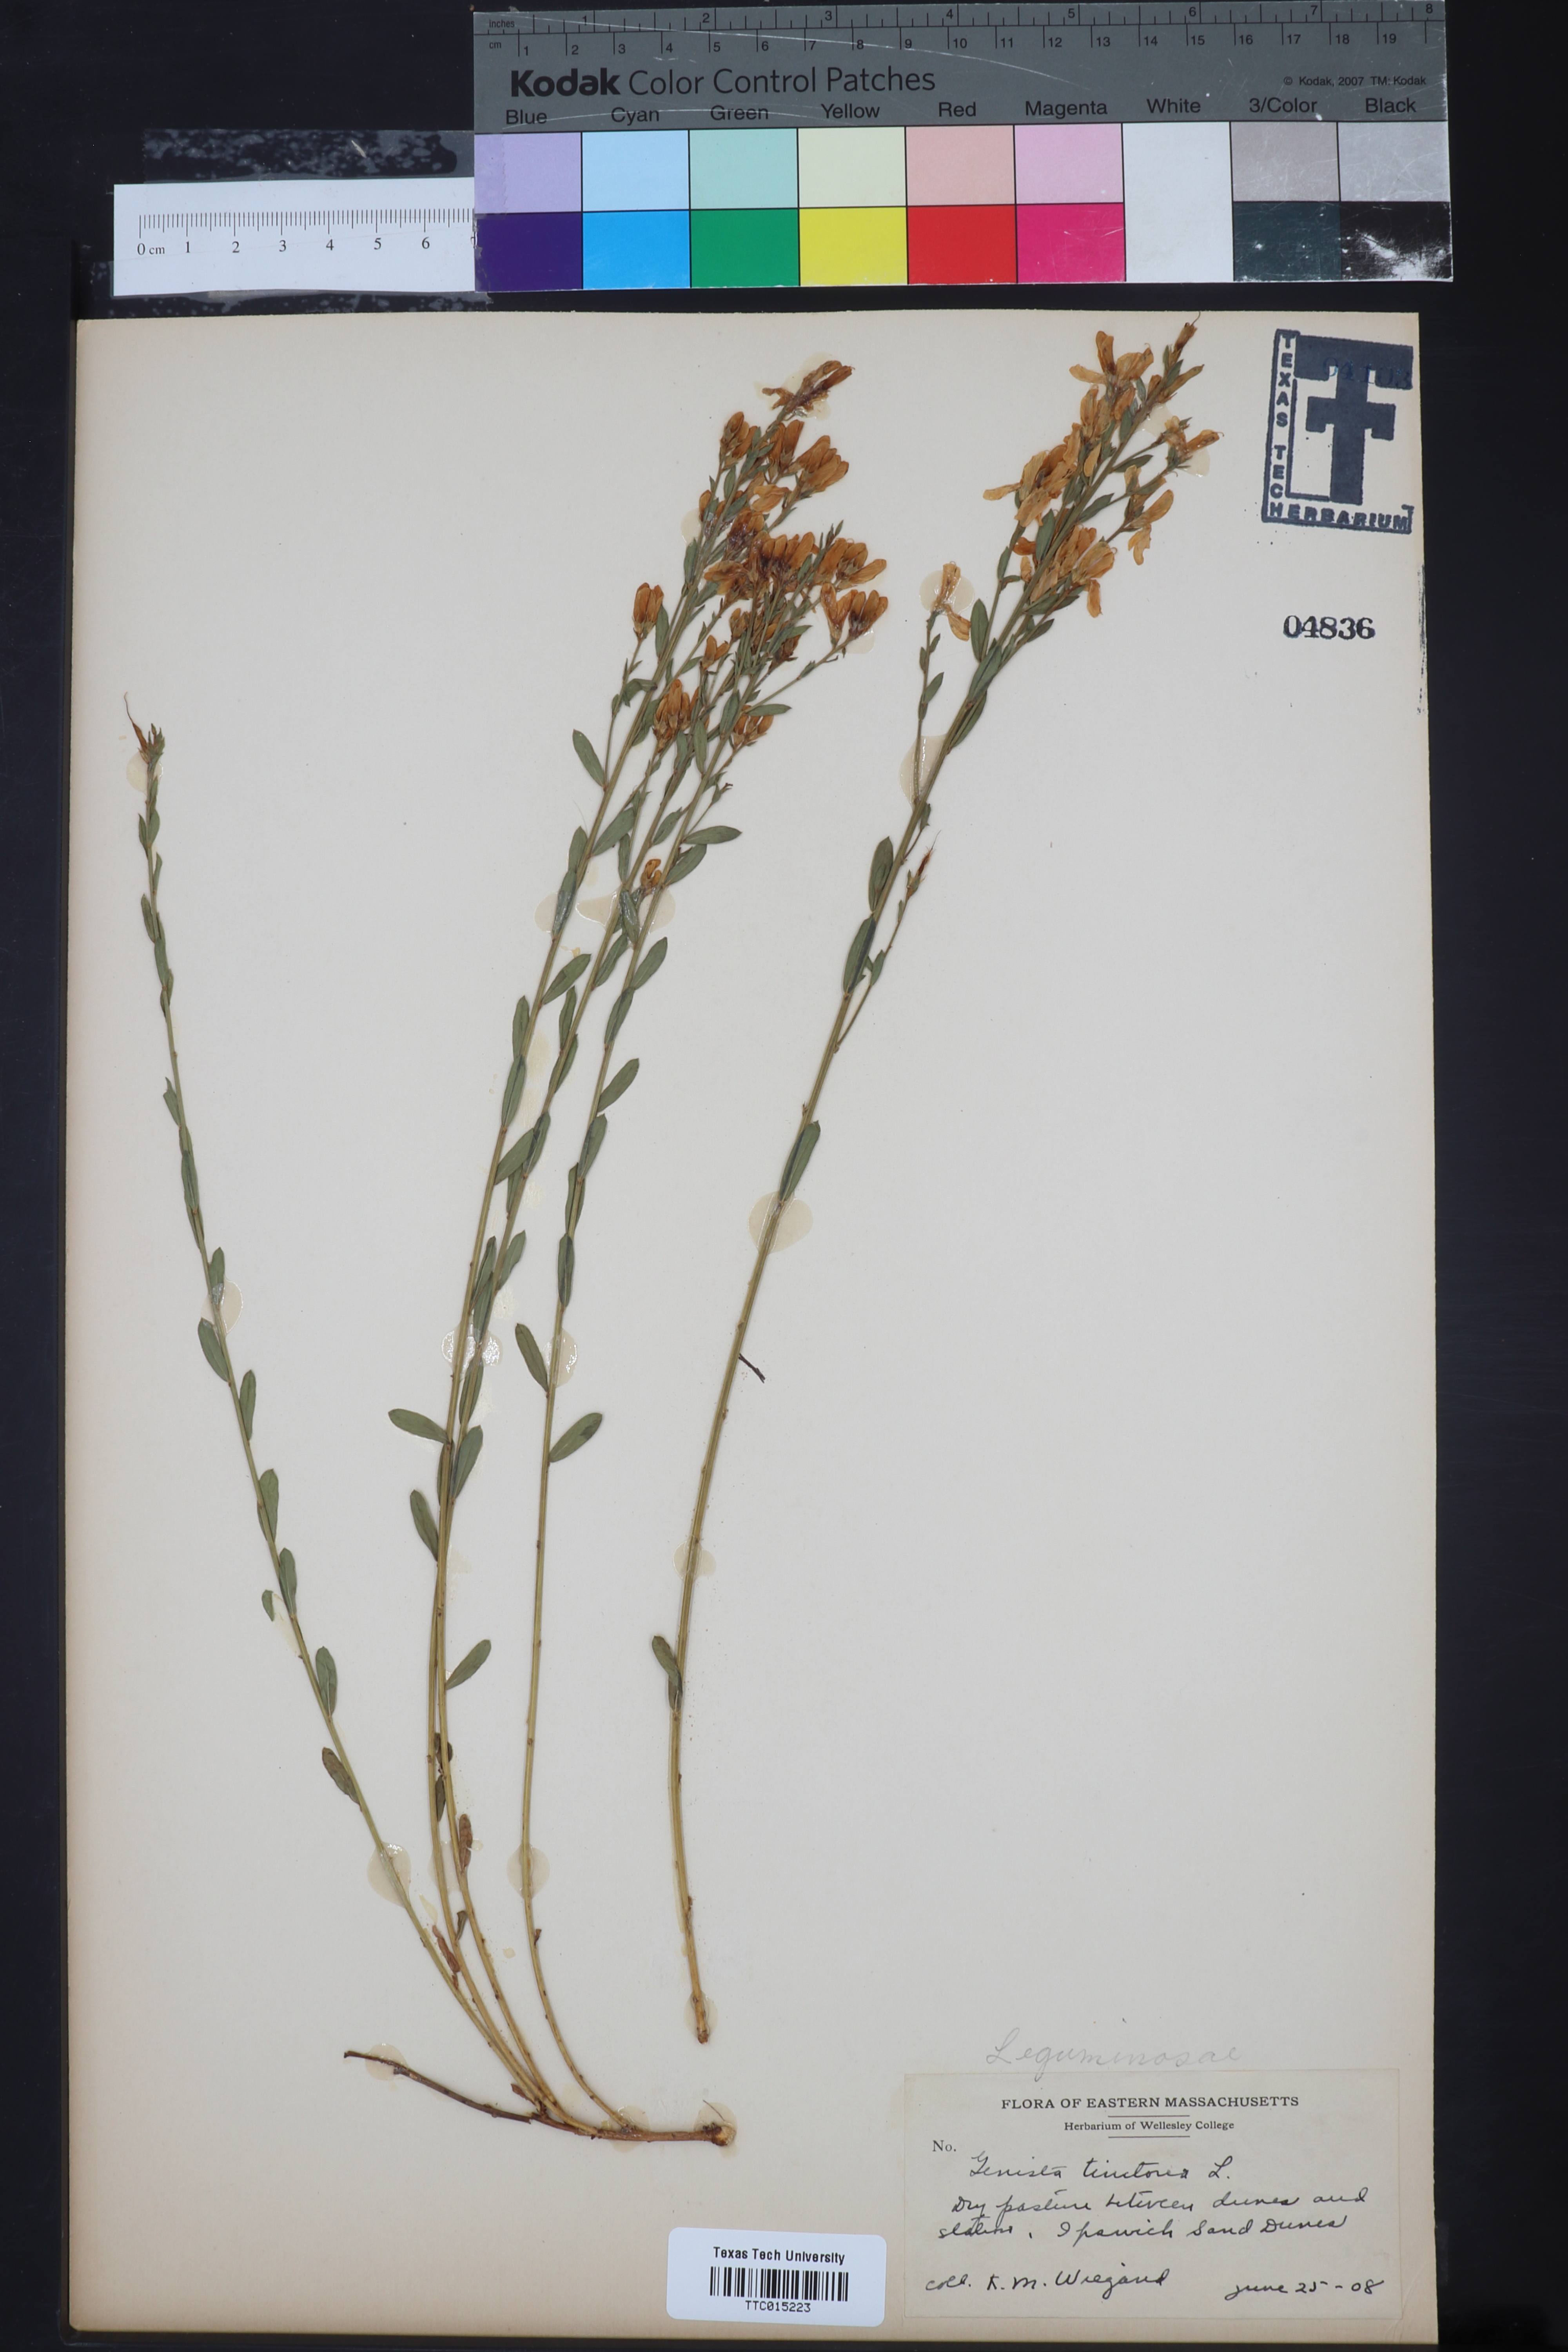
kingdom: Plantae
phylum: Tracheophyta
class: Magnoliopsida
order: Fabales
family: Fabaceae
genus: Genista
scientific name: Genista tinctoria
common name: Dyer's greenweed
